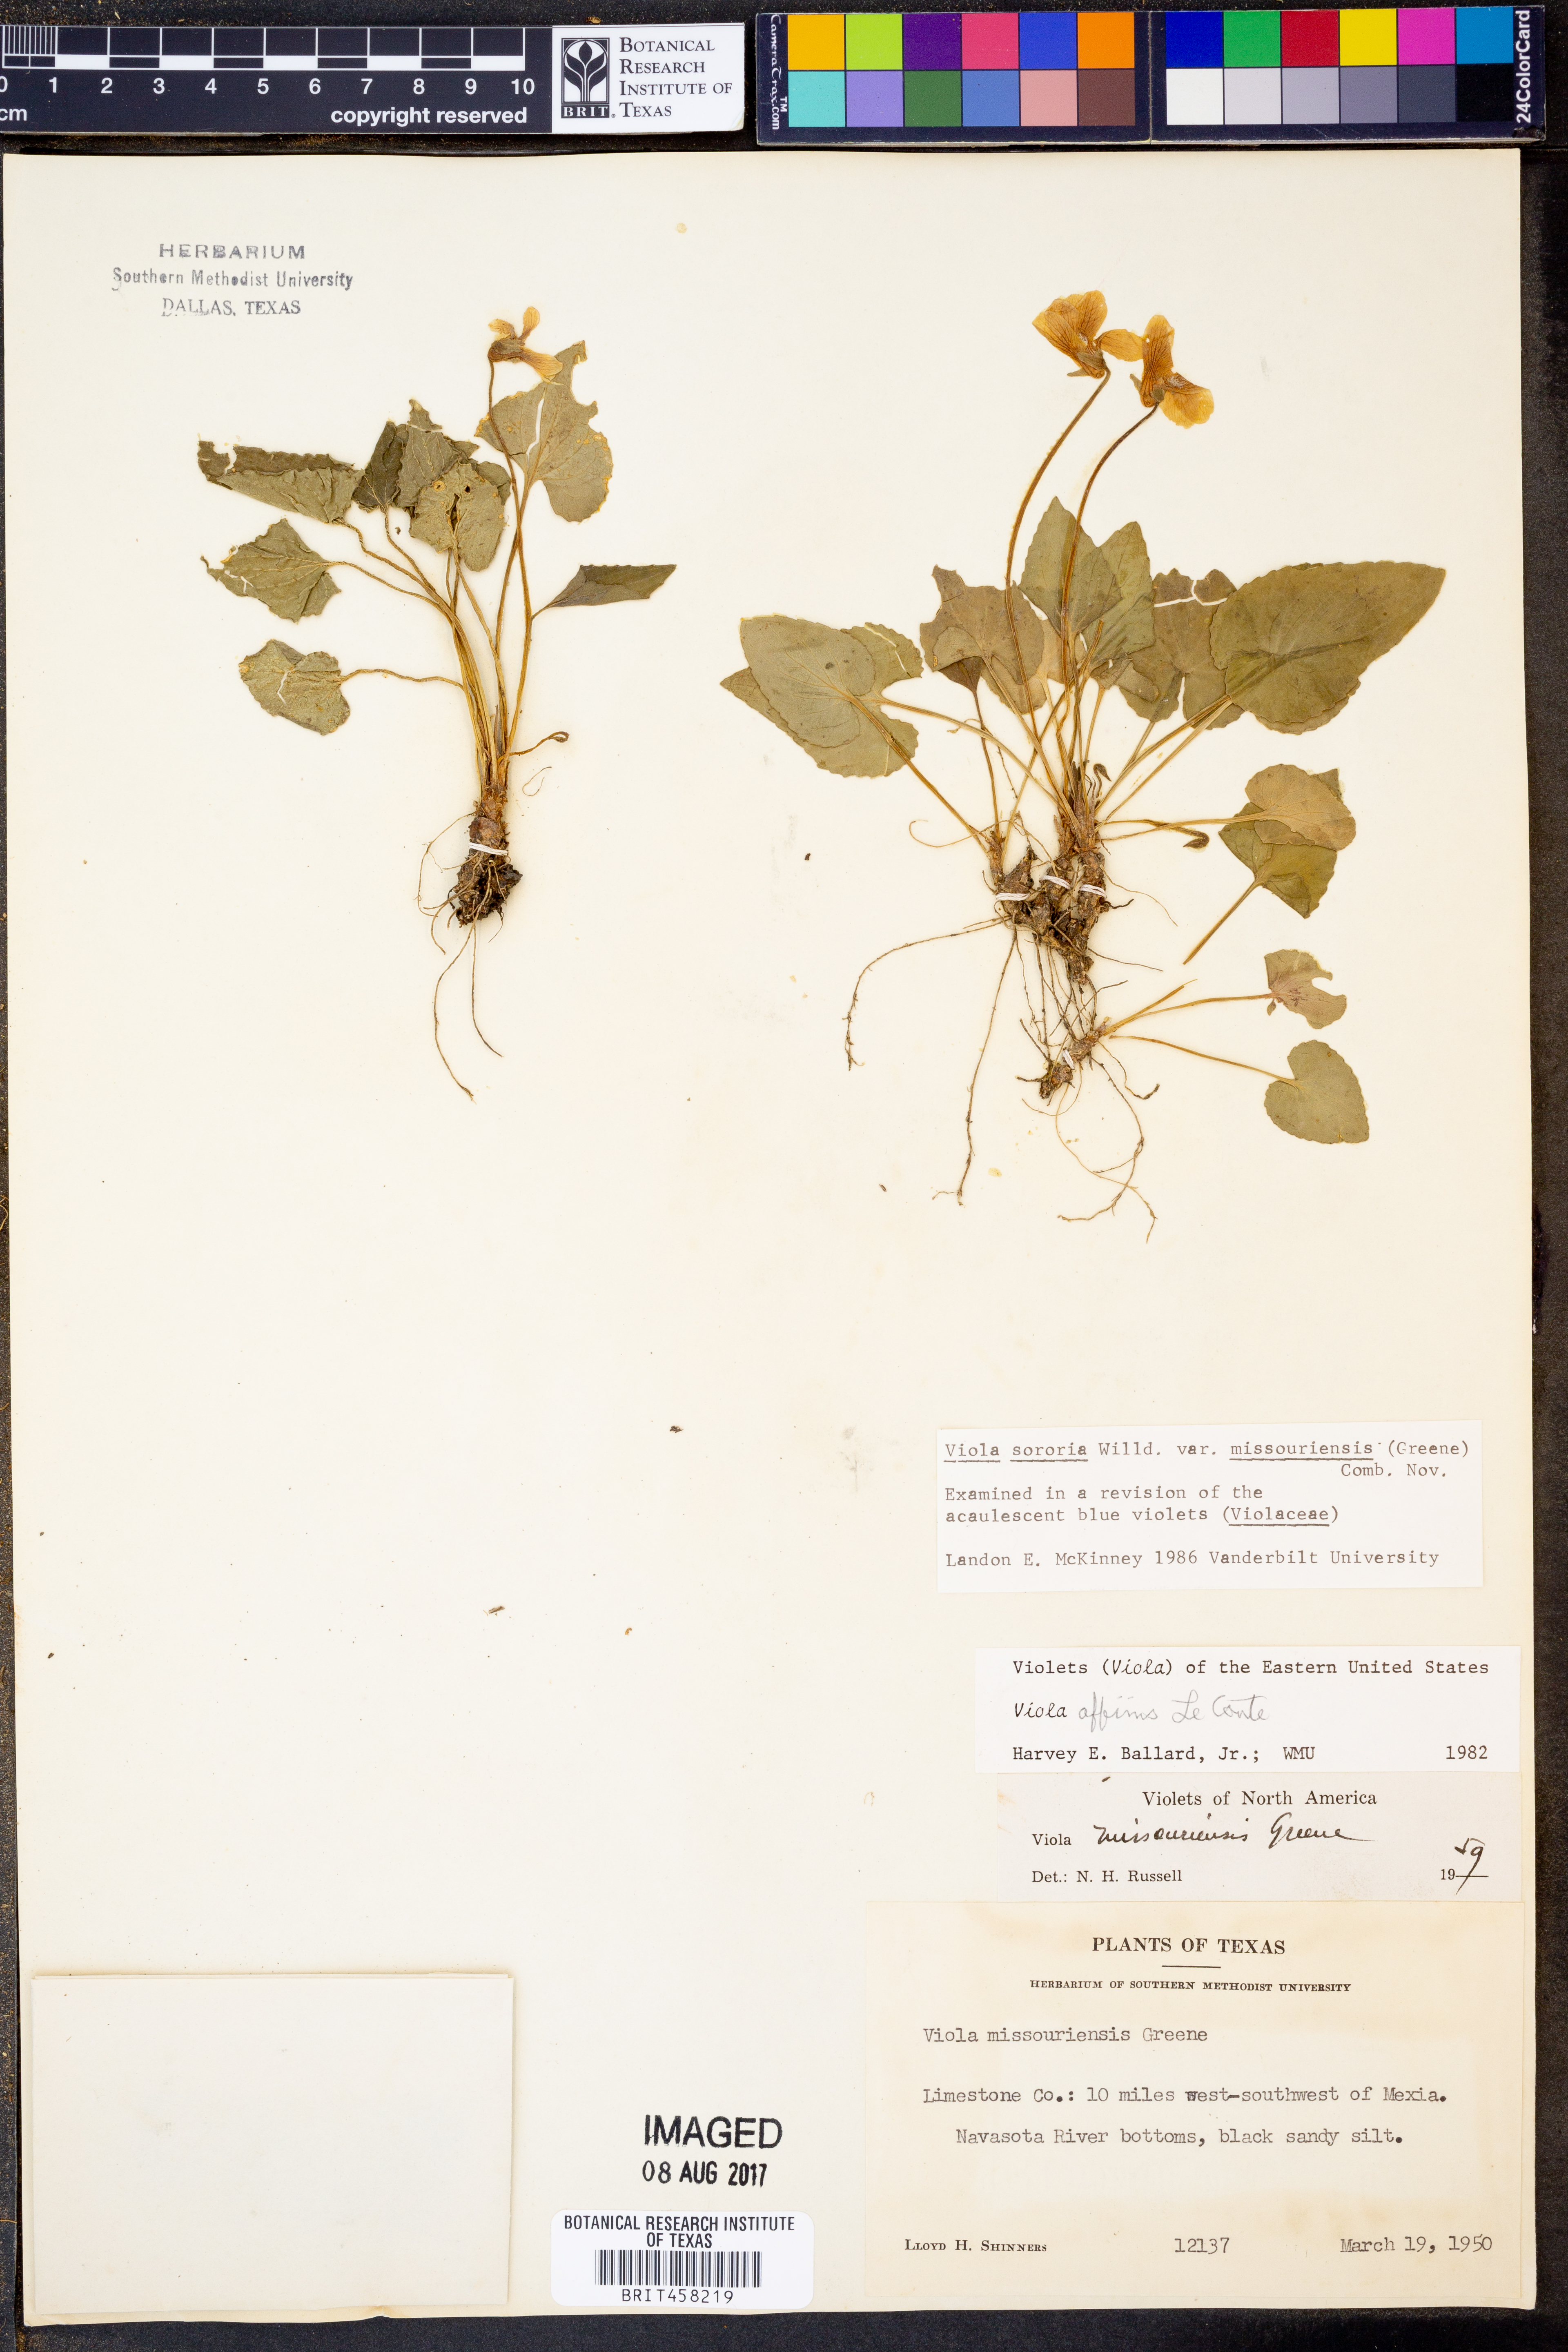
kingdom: Plantae
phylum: Tracheophyta
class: Magnoliopsida
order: Malpighiales
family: Violaceae
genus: Viola
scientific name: Viola missouriensis
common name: Missouri violet
